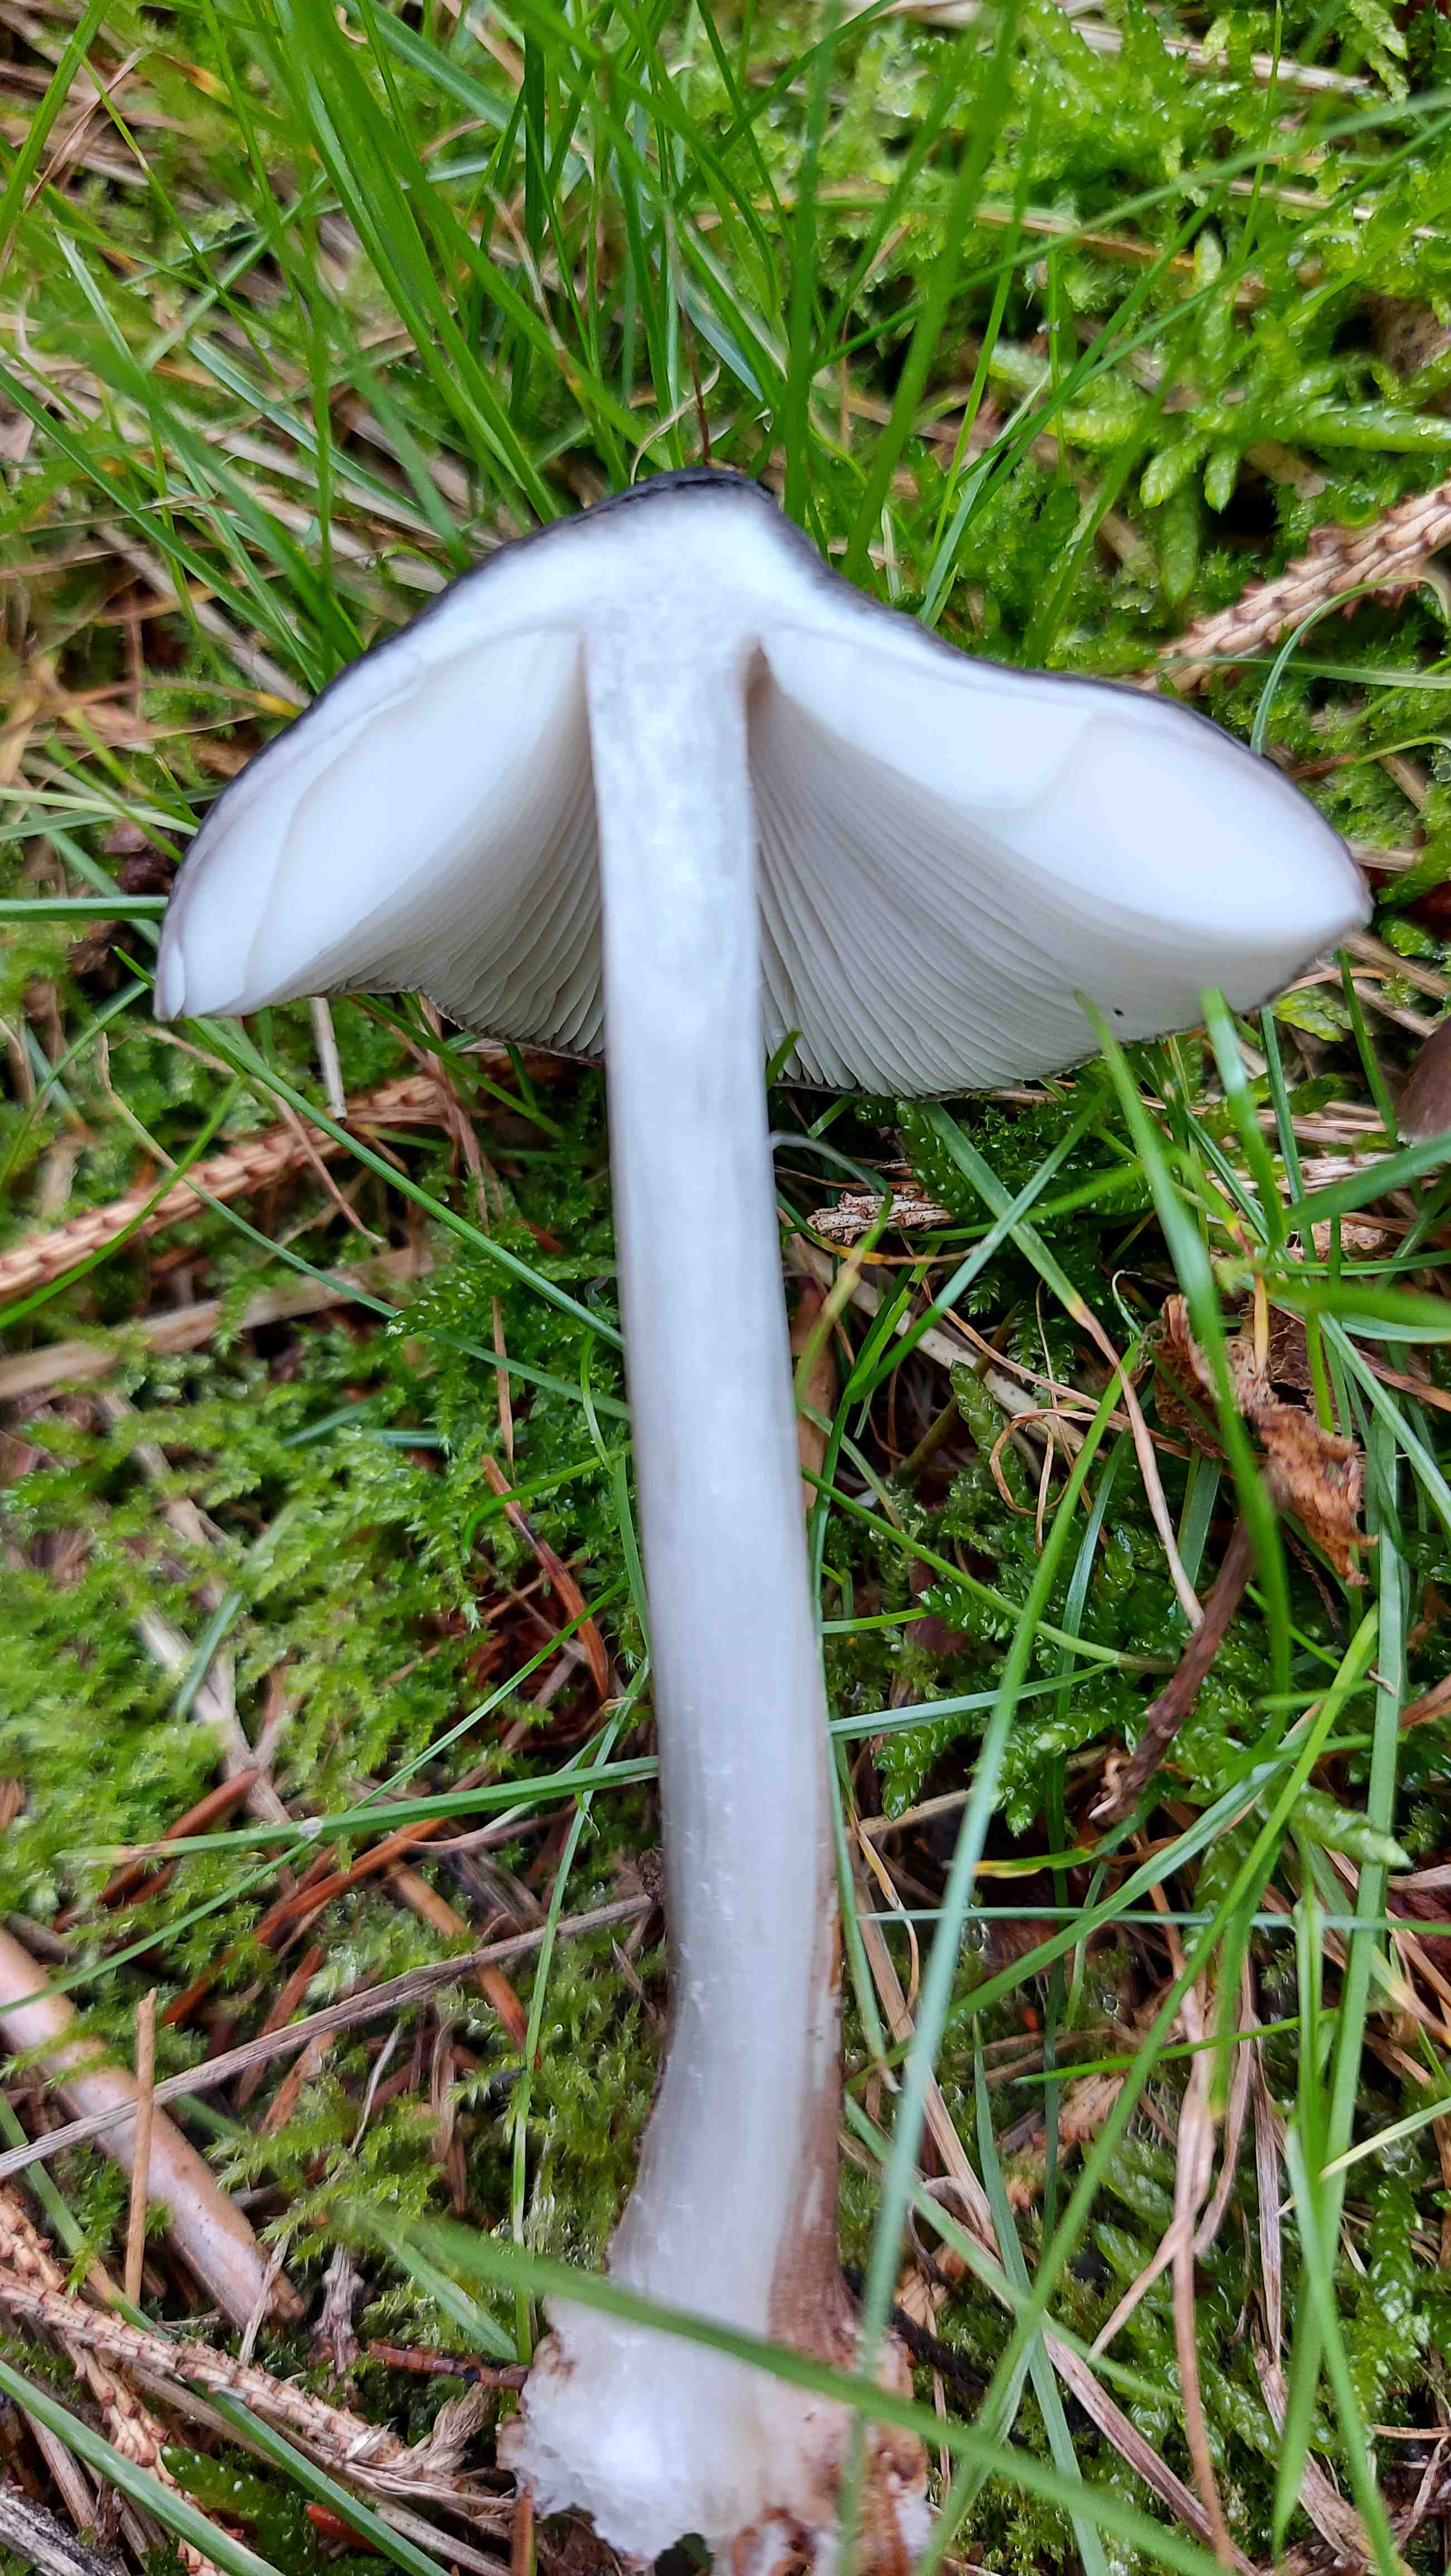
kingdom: Fungi
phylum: Basidiomycota
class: Agaricomycetes
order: Agaricales
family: Pluteaceae
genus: Pluteus
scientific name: Pluteus
